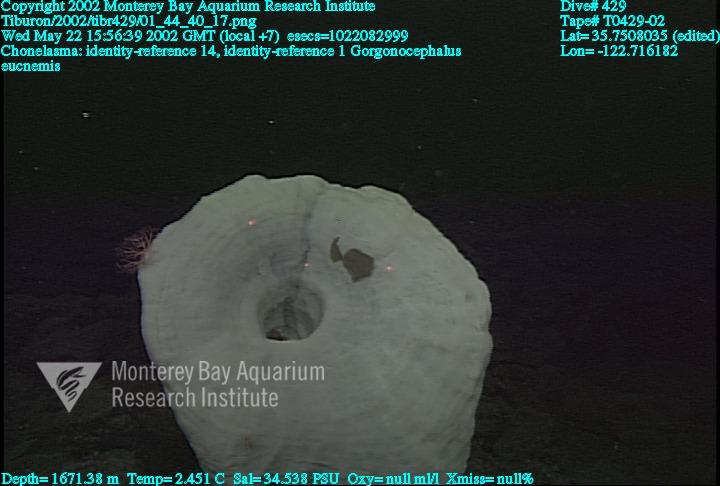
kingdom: Animalia
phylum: Porifera
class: Hexactinellida
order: Sceptrulophora
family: Euretidae
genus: Chonelasma
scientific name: Chonelasma
